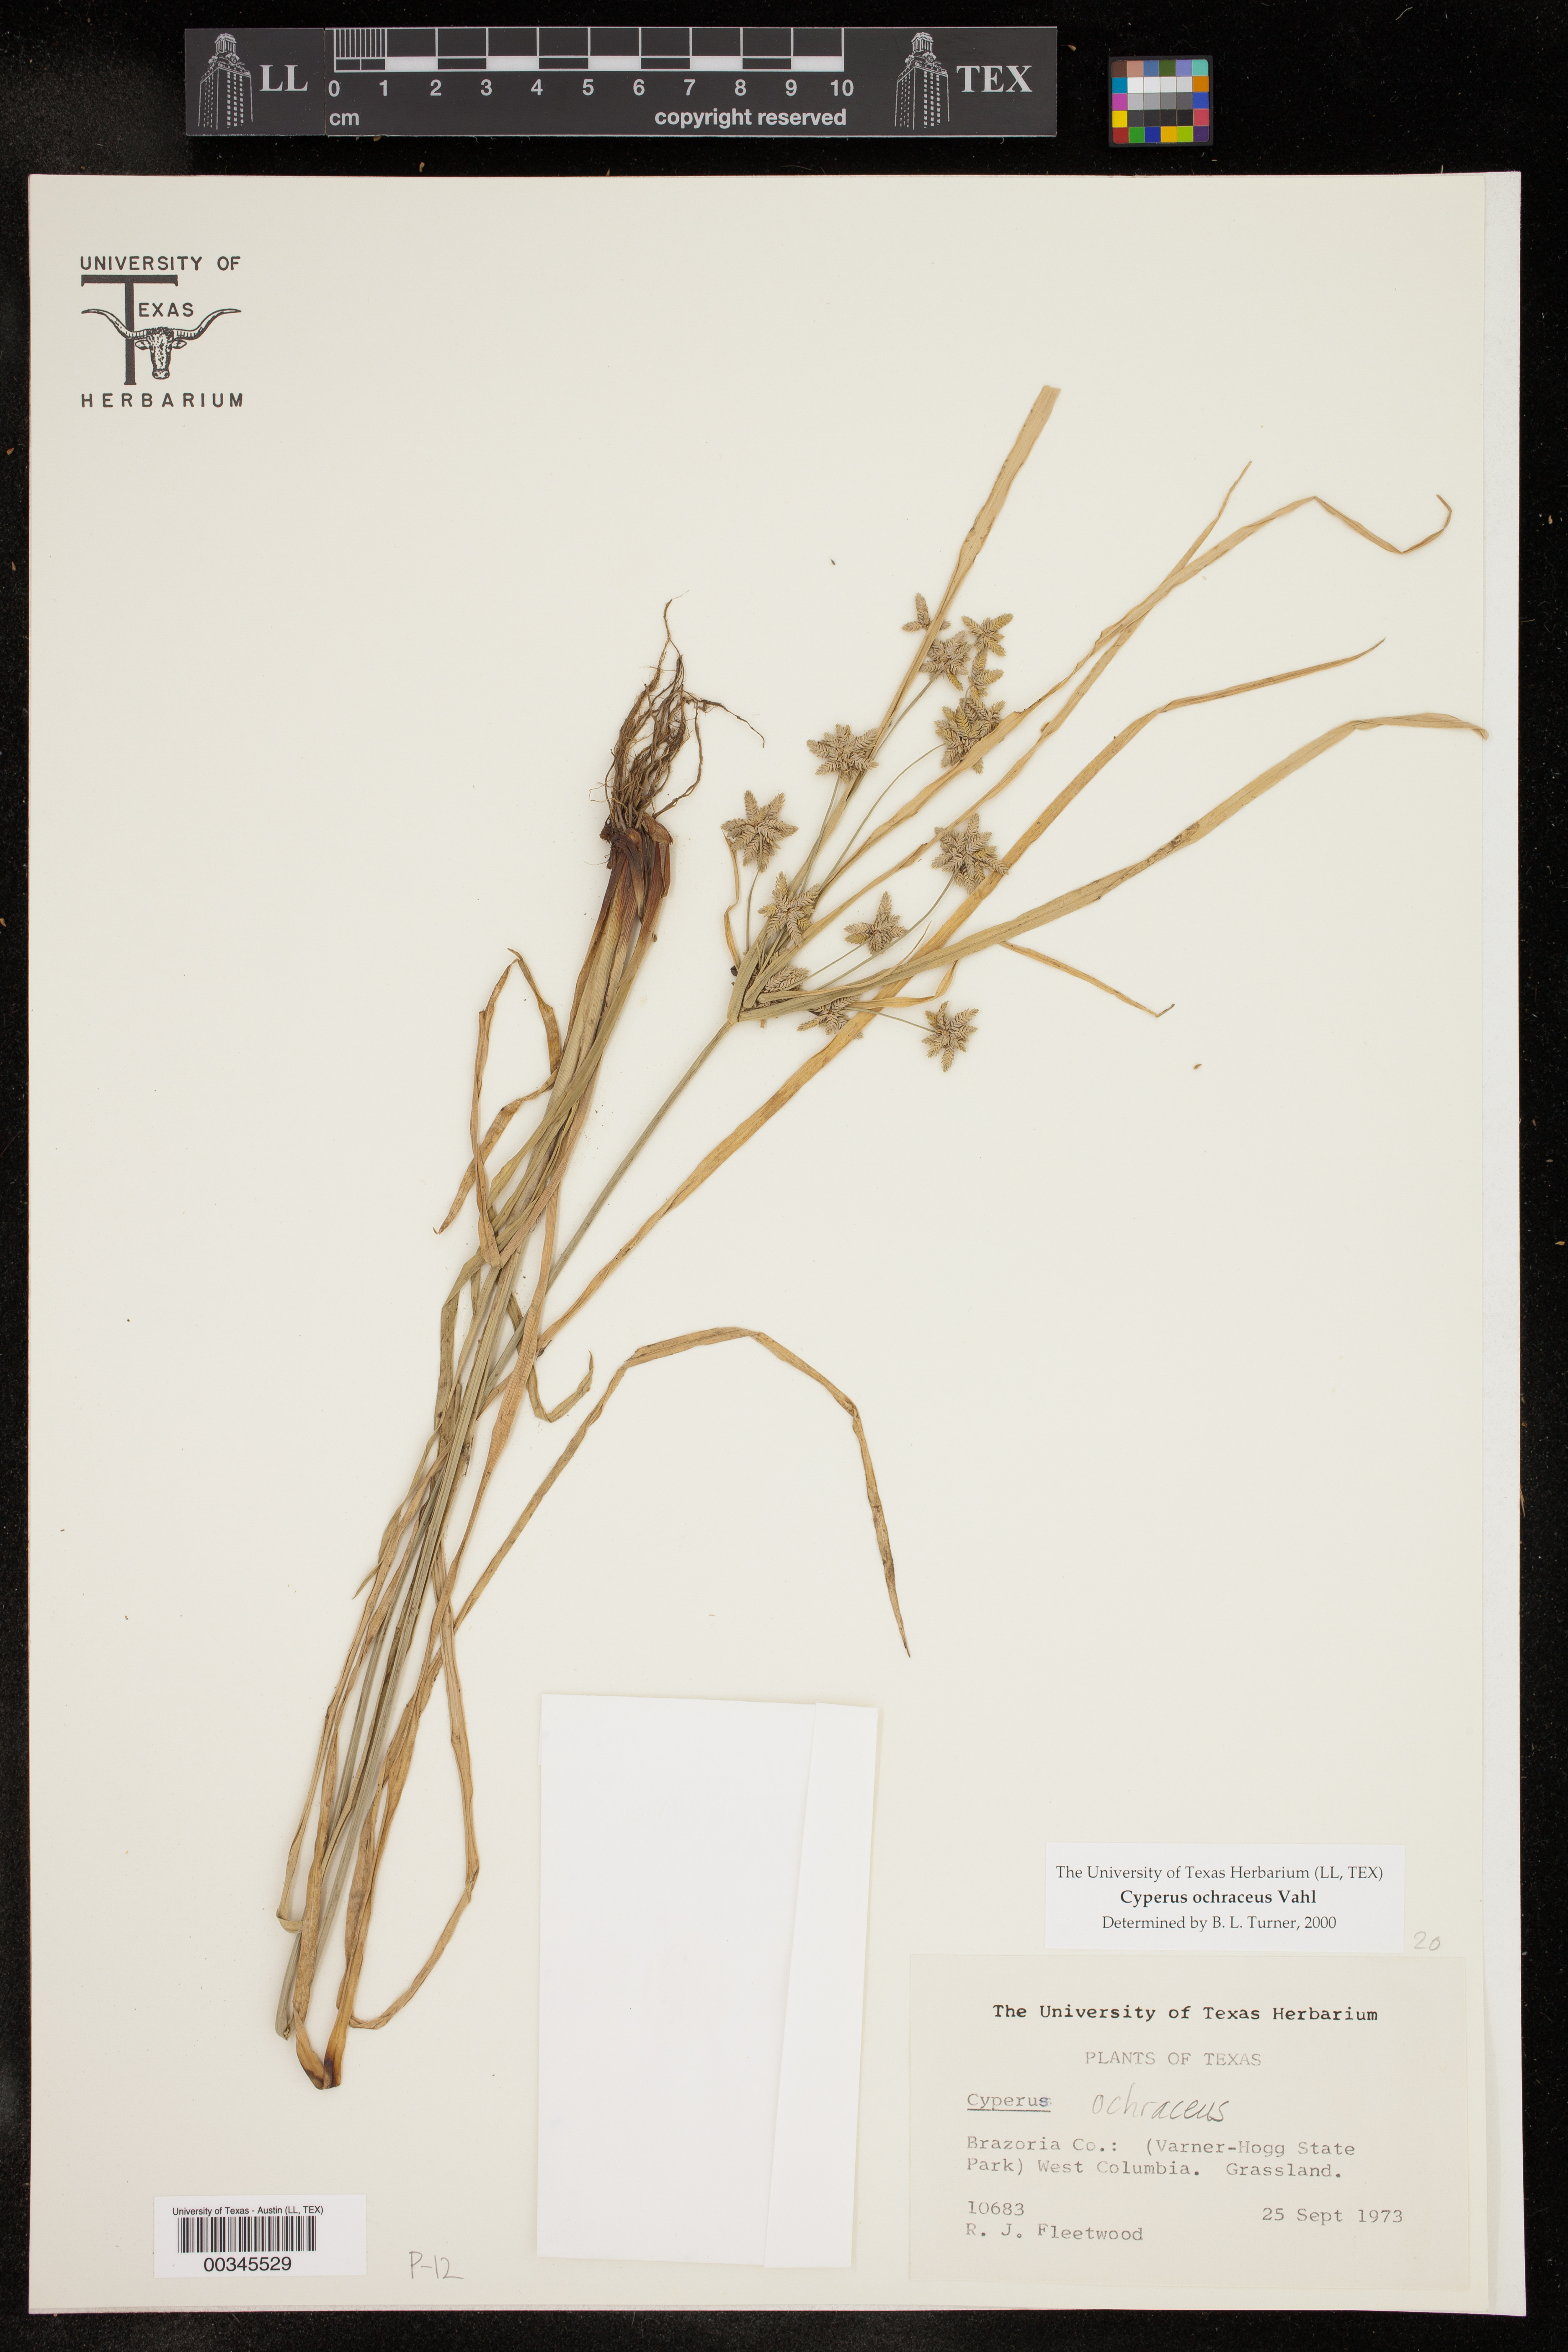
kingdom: Plantae
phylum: Tracheophyta
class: Liliopsida
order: Poales
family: Cyperaceae
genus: Cyperus
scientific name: Cyperus ochraceus
